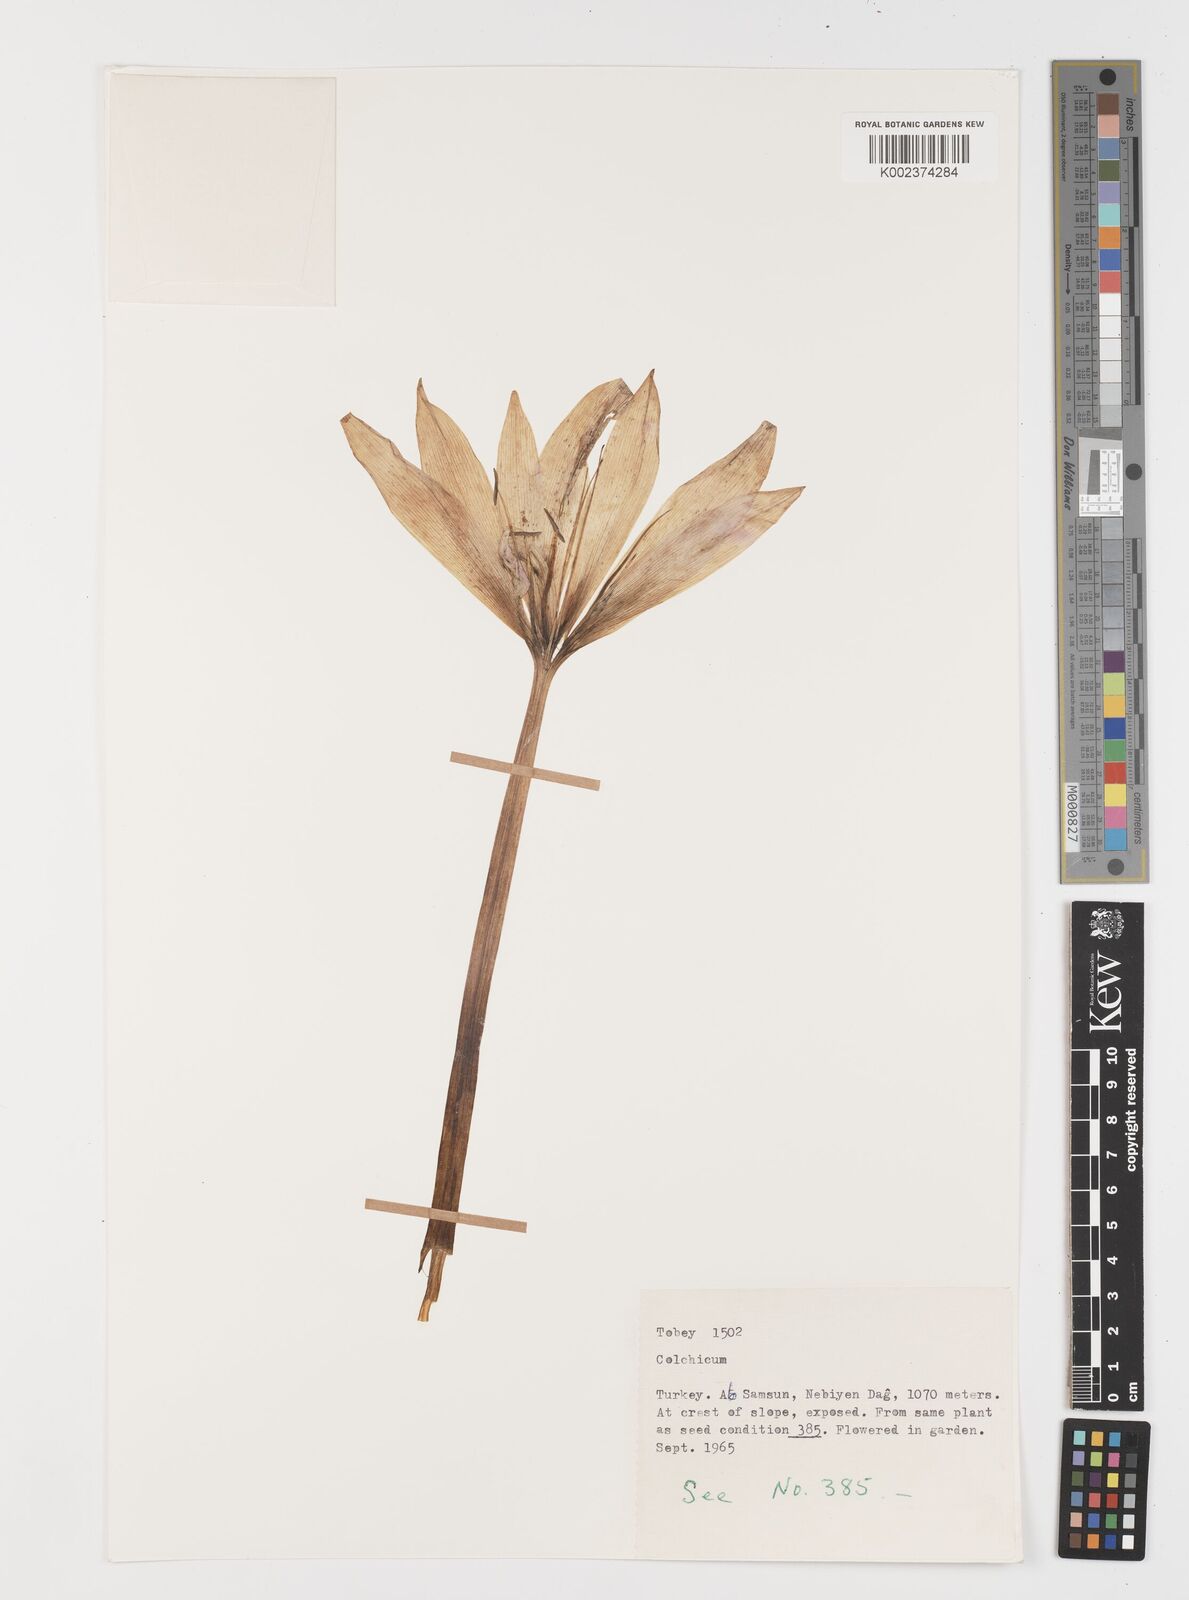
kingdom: Plantae
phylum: Tracheophyta
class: Liliopsida
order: Liliales
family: Colchicaceae
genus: Colchicum
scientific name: Colchicum
